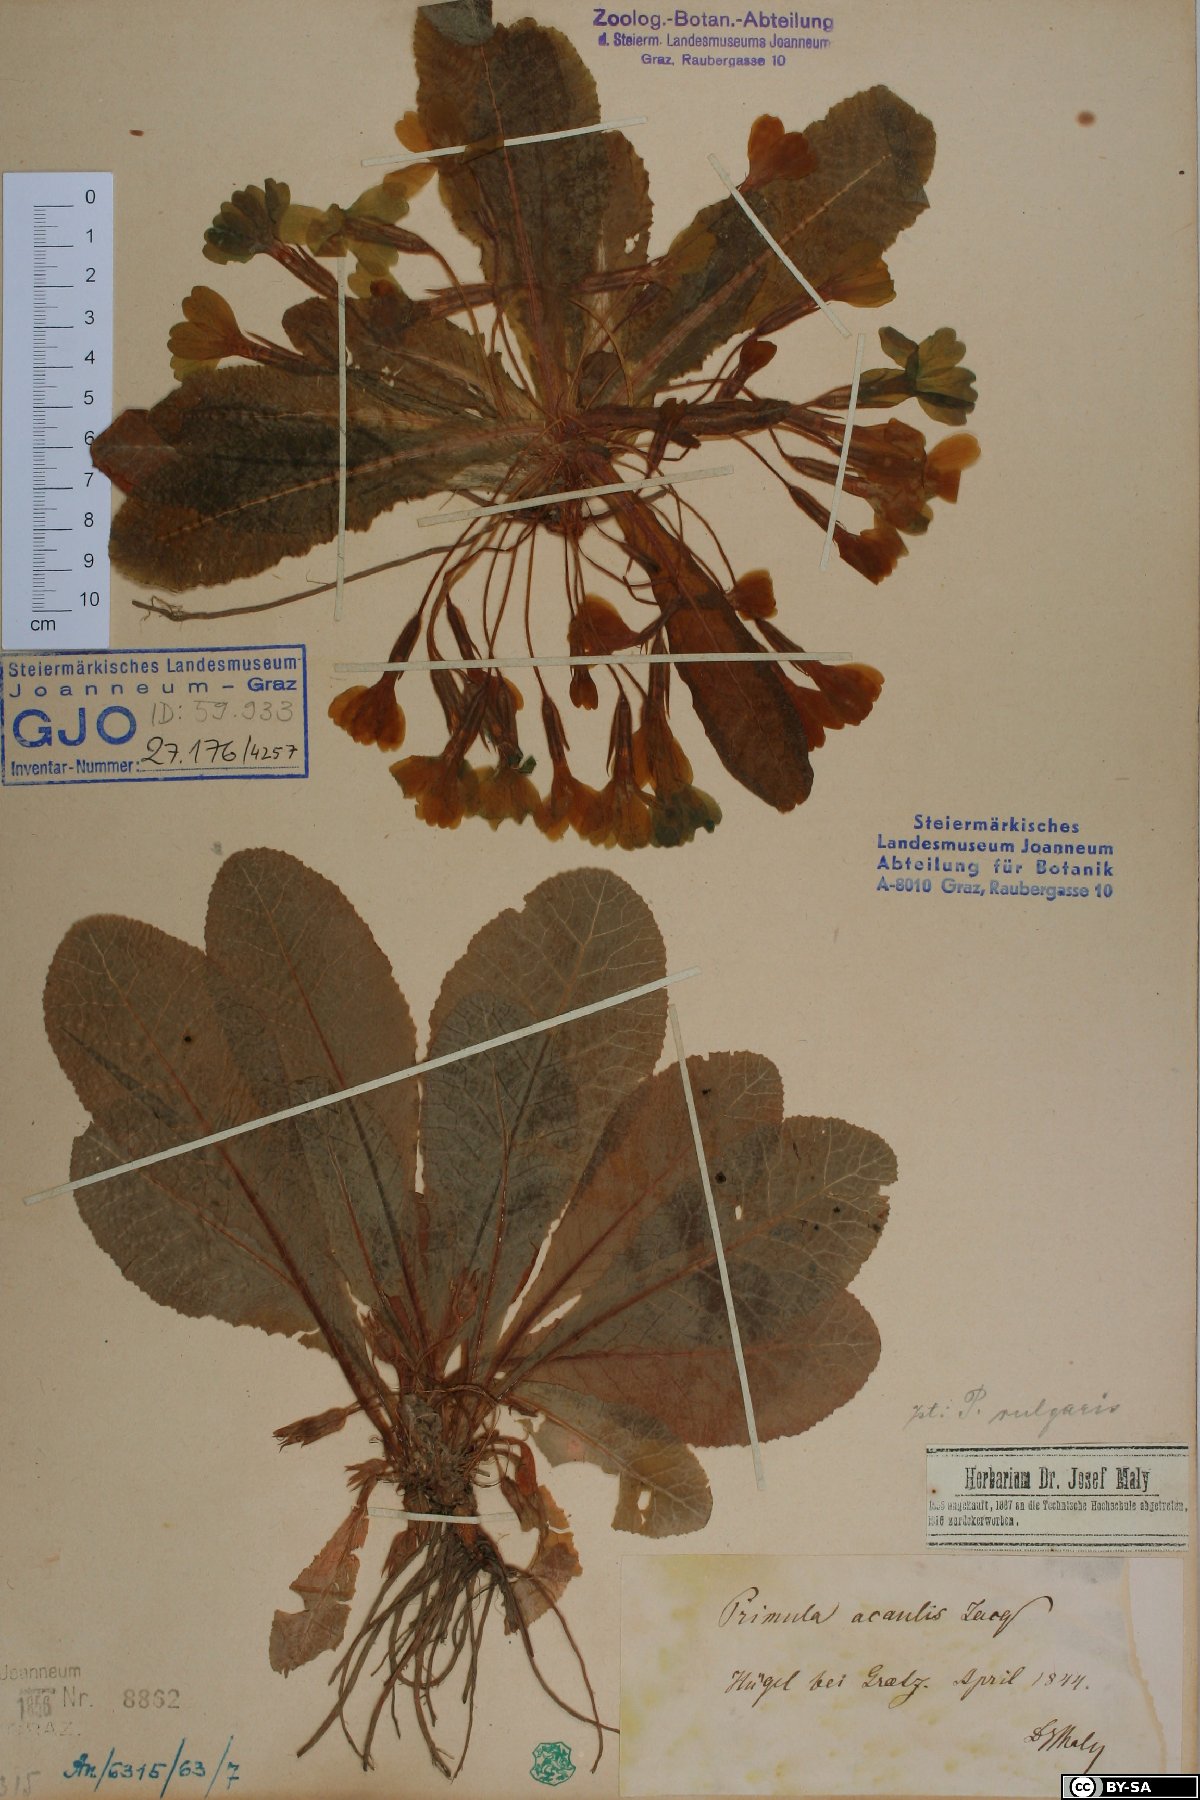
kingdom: Plantae
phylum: Tracheophyta
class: Magnoliopsida
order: Ericales
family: Primulaceae
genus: Primula
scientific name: Primula vulgaris
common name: Primrose
